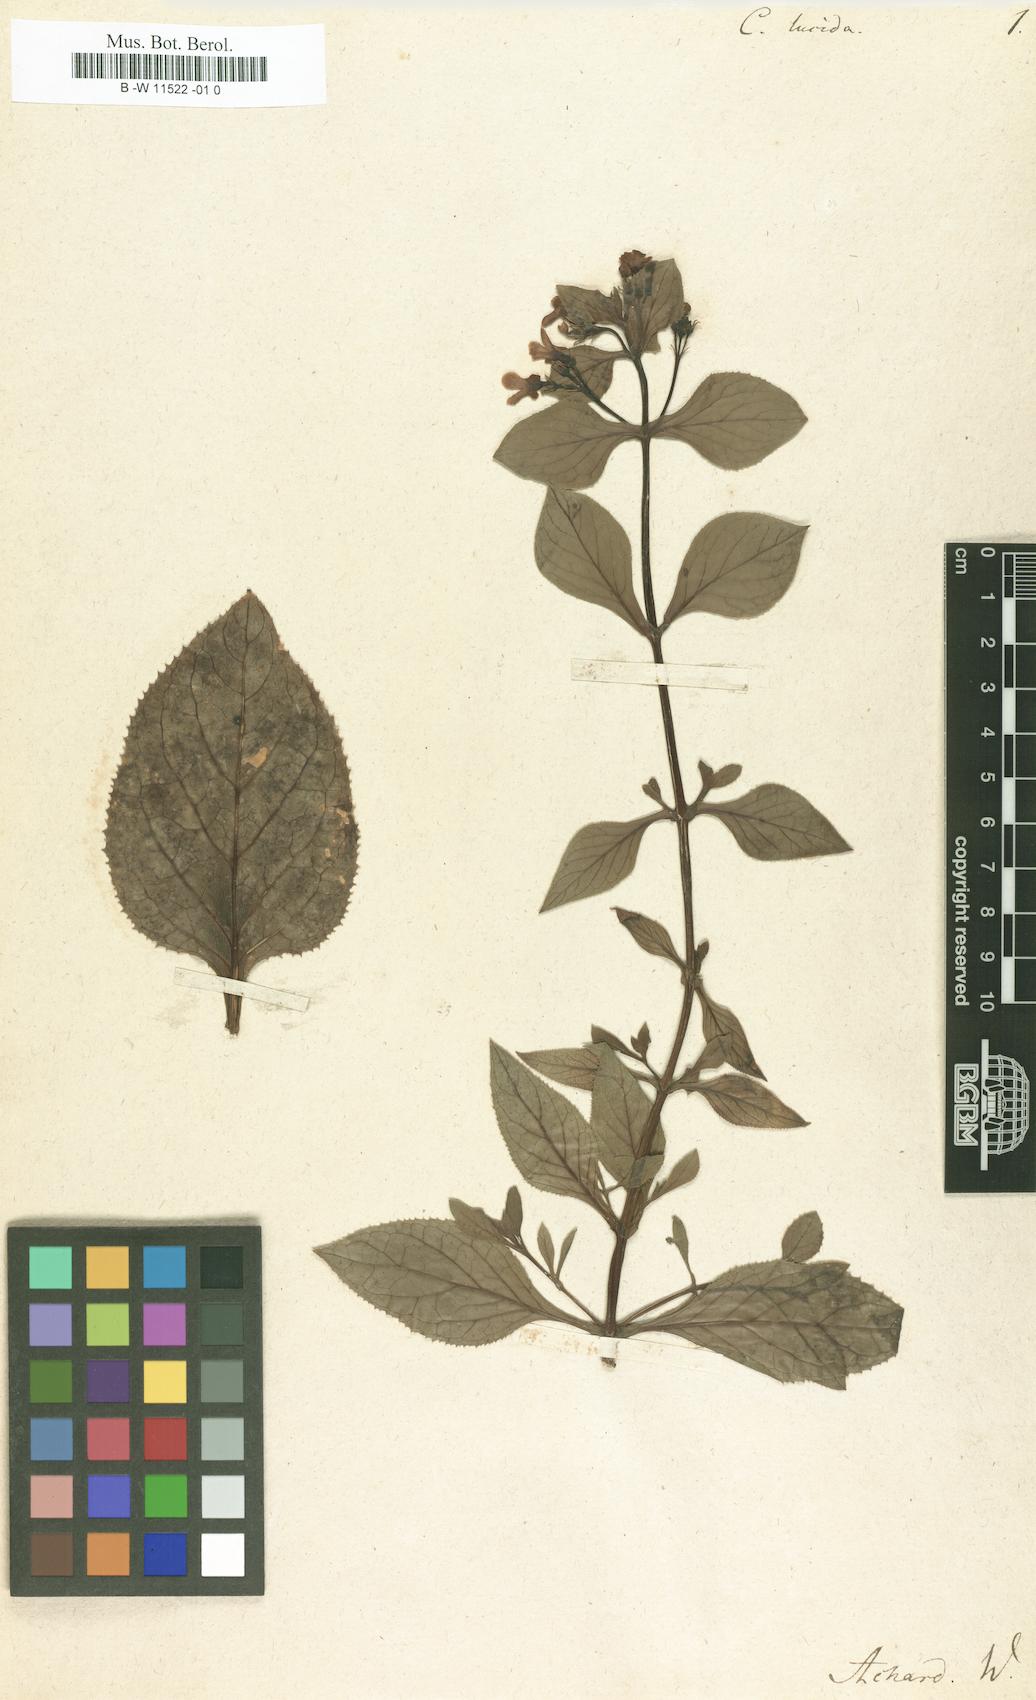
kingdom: Plantae
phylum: Tracheophyta
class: Magnoliopsida
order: Lamiales
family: Scrophulariaceae
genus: Teedia
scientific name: Teedia lucida
